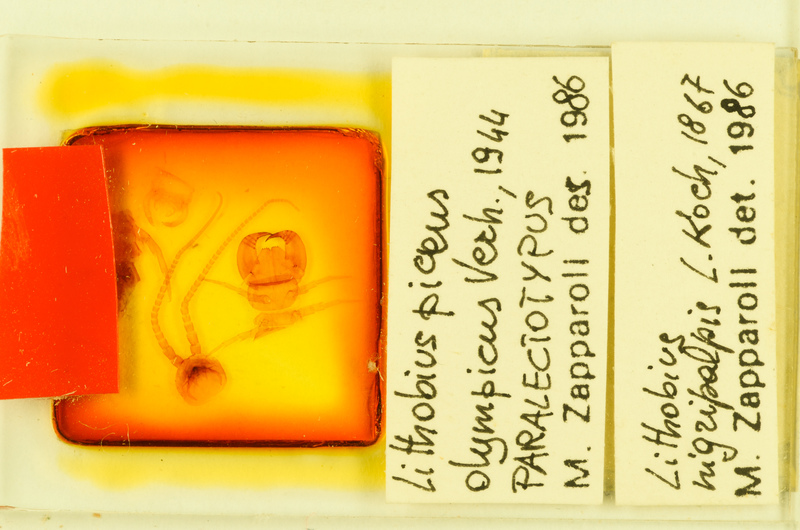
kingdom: Animalia
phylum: Arthropoda
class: Chilopoda
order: Lithobiomorpha
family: Lithobiidae
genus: Lithobius
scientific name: Lithobius nigripalpis
